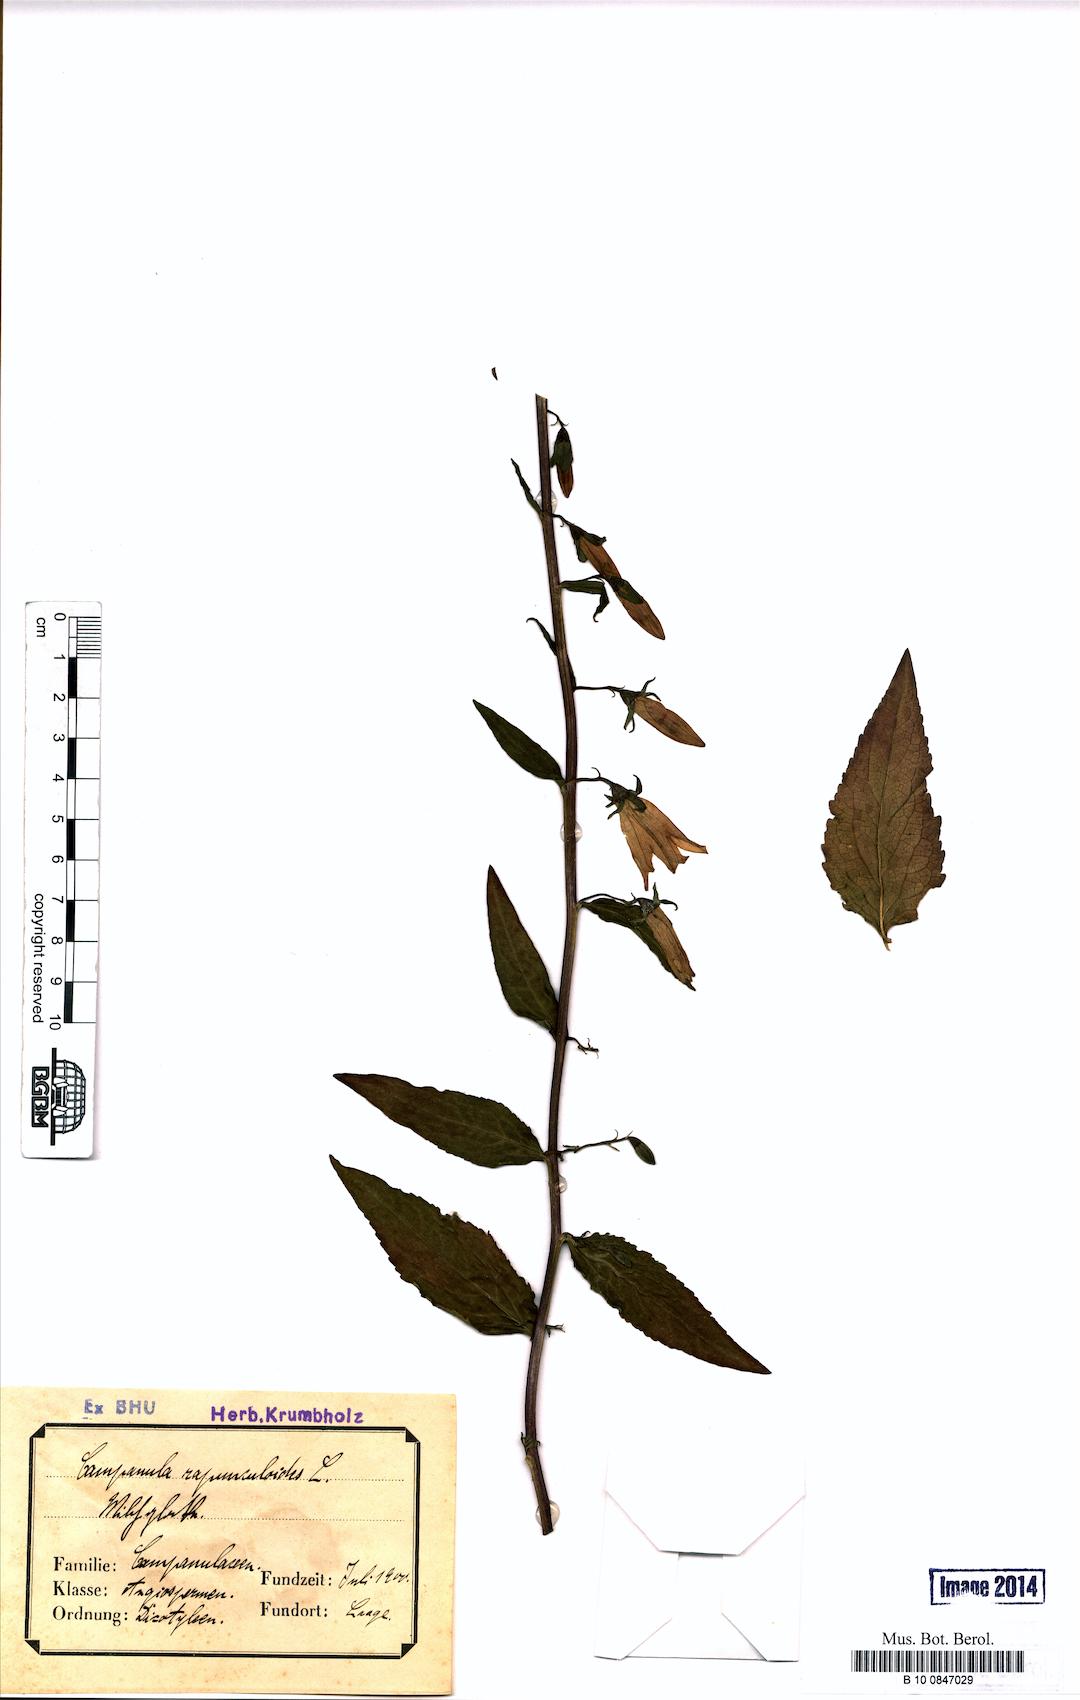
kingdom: Plantae
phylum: Tracheophyta
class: Magnoliopsida
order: Asterales
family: Campanulaceae
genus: Campanula
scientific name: Campanula rapunculoides
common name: Creeping bellflower
